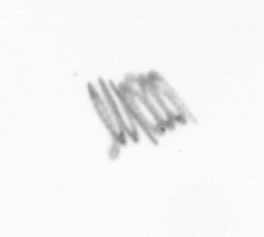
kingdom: Chromista
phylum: Ochrophyta
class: Bacillariophyceae
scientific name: Bacillariophyceae
